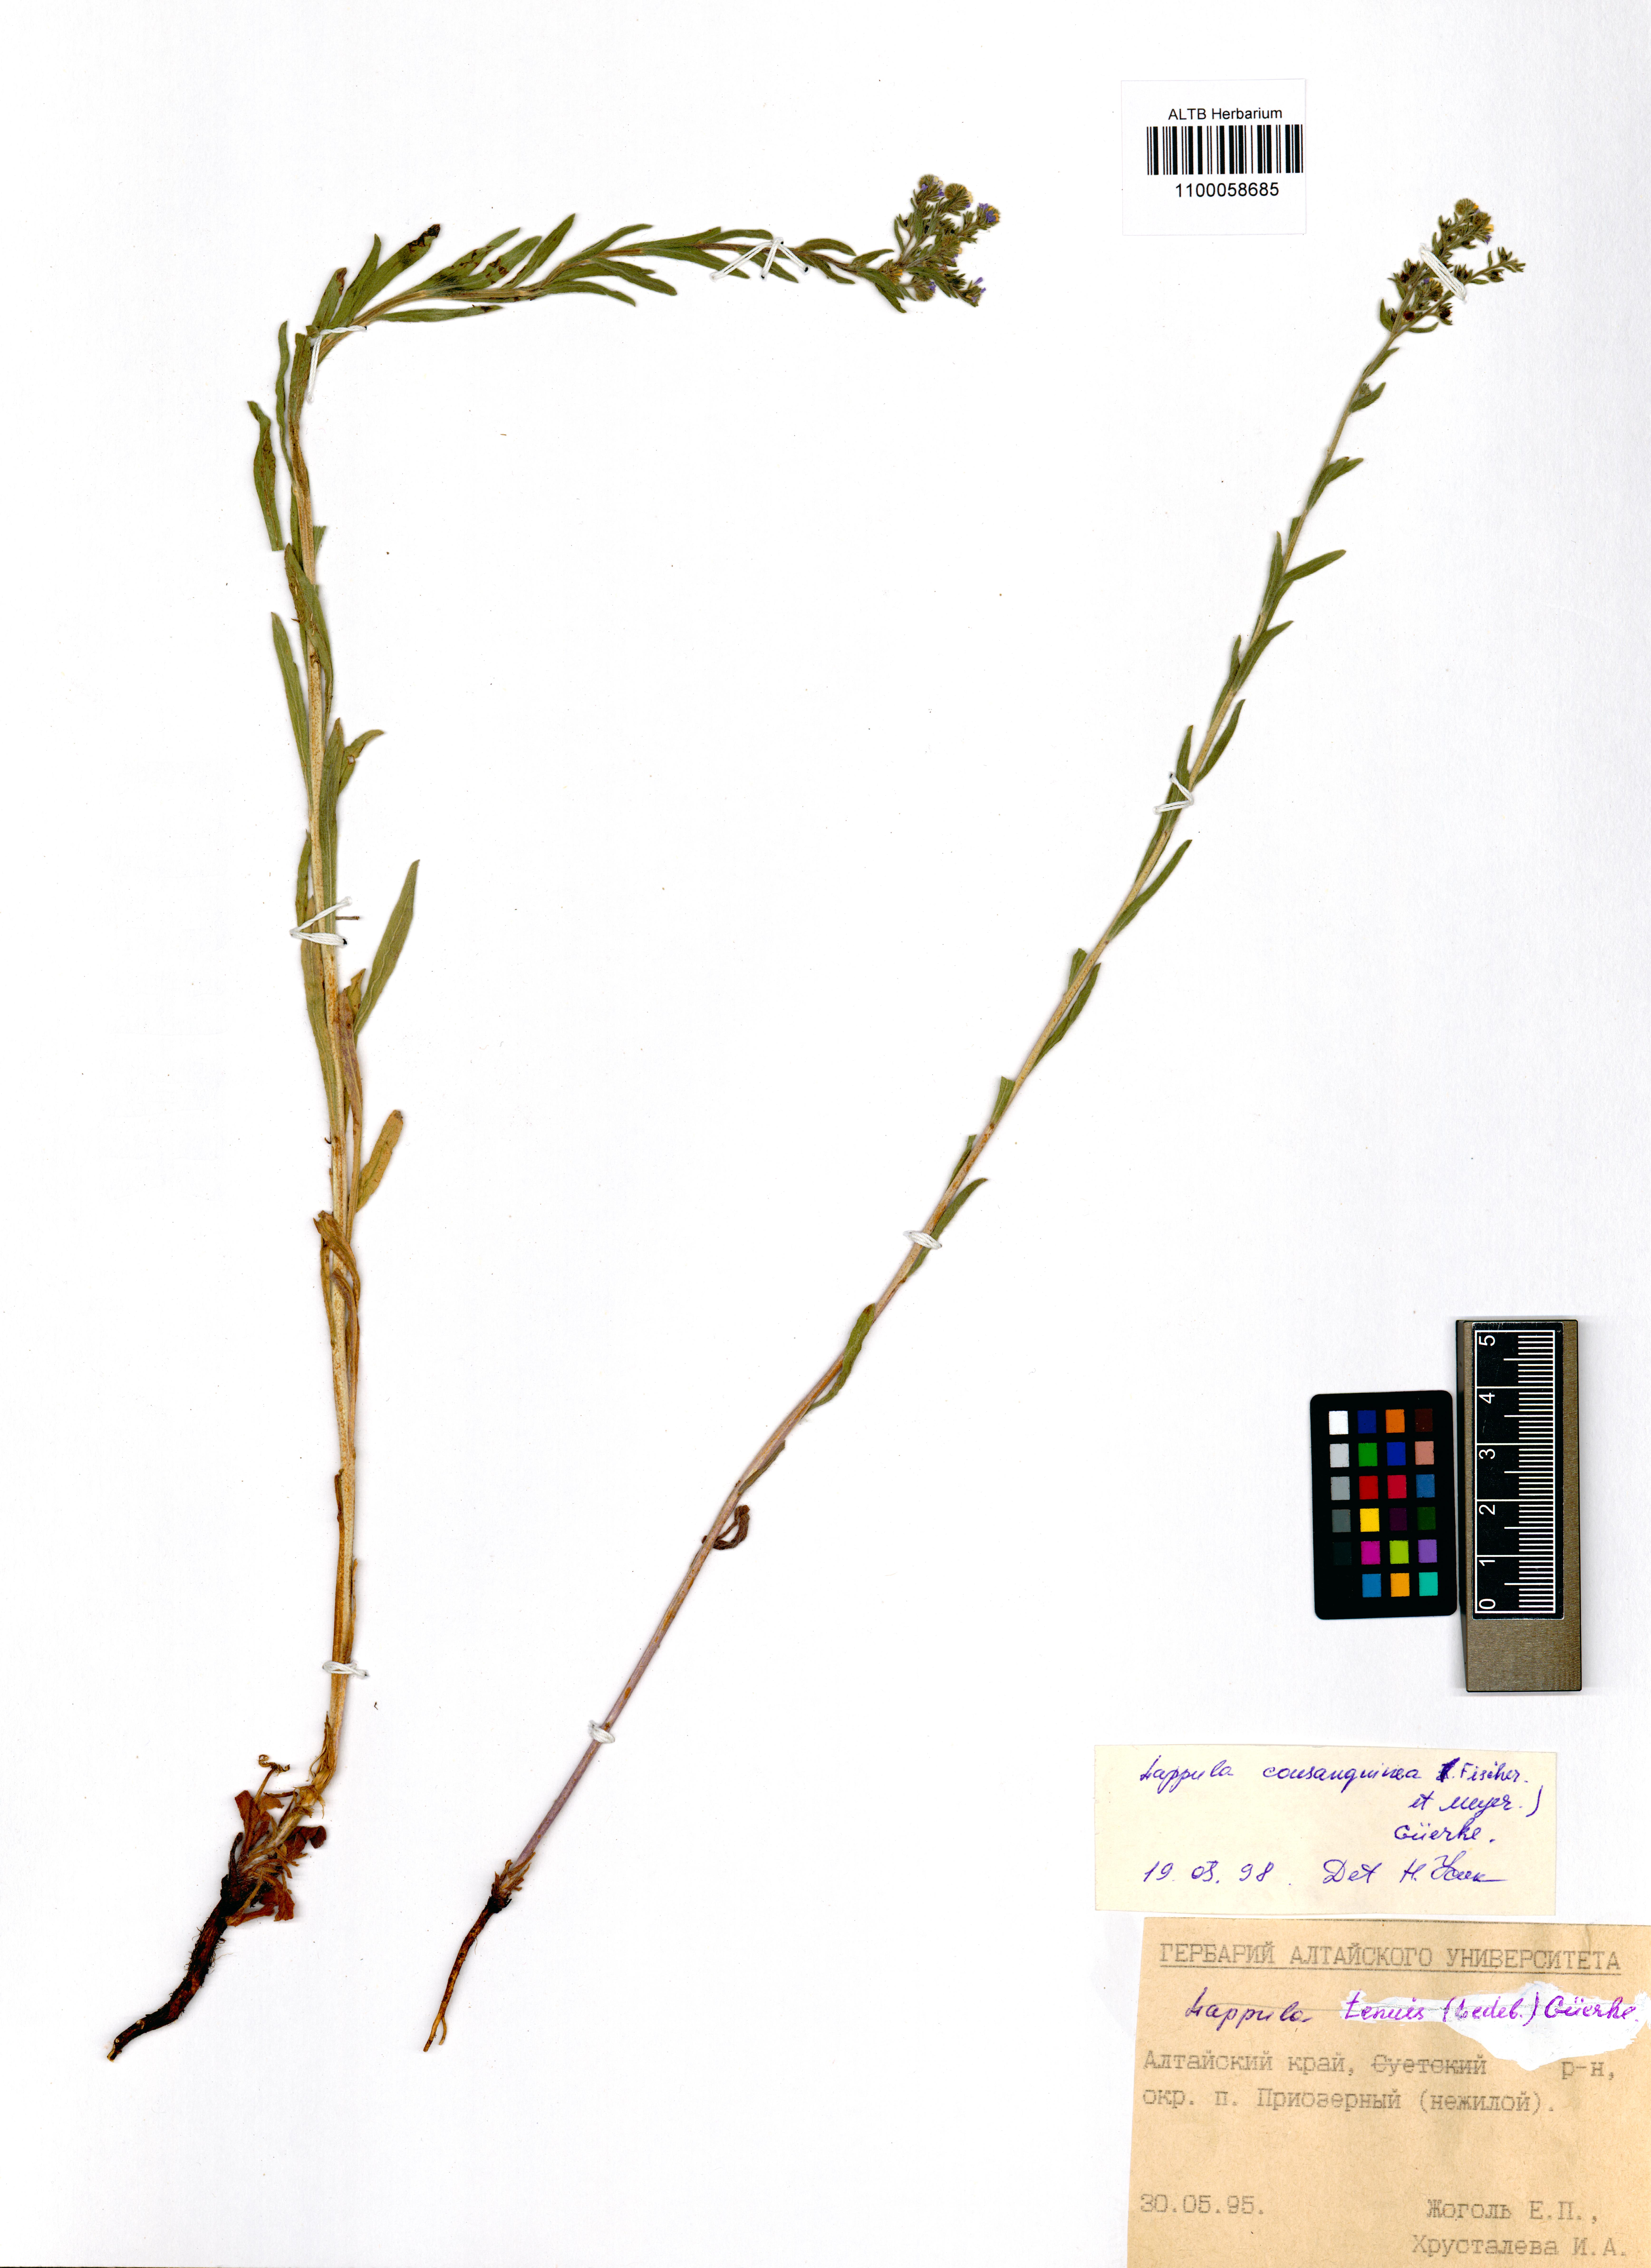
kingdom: Plantae
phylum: Tracheophyta
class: Magnoliopsida
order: Boraginales
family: Boraginaceae
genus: Lappula
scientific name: Lappula squarrosa
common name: European stickseed
